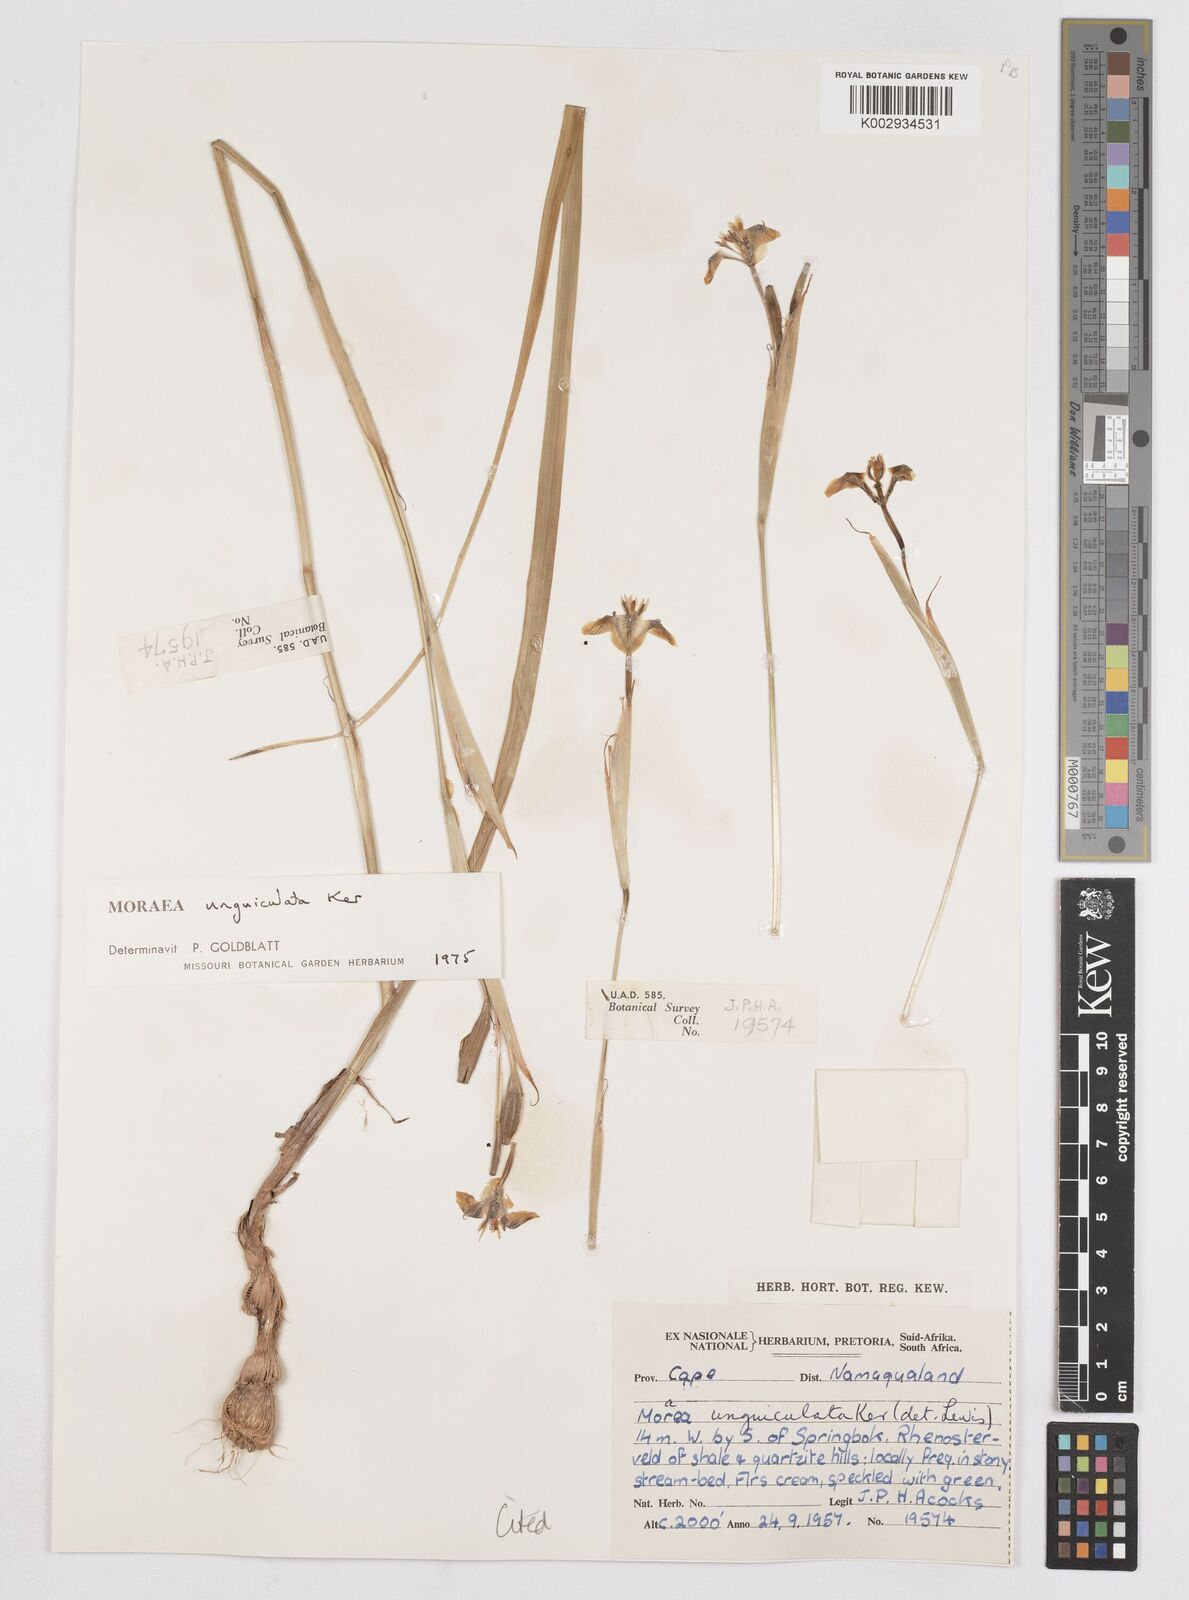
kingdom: Plantae
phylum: Tracheophyta
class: Liliopsida
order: Asparagales
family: Iridaceae
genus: Moraea
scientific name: Moraea unguiculata
